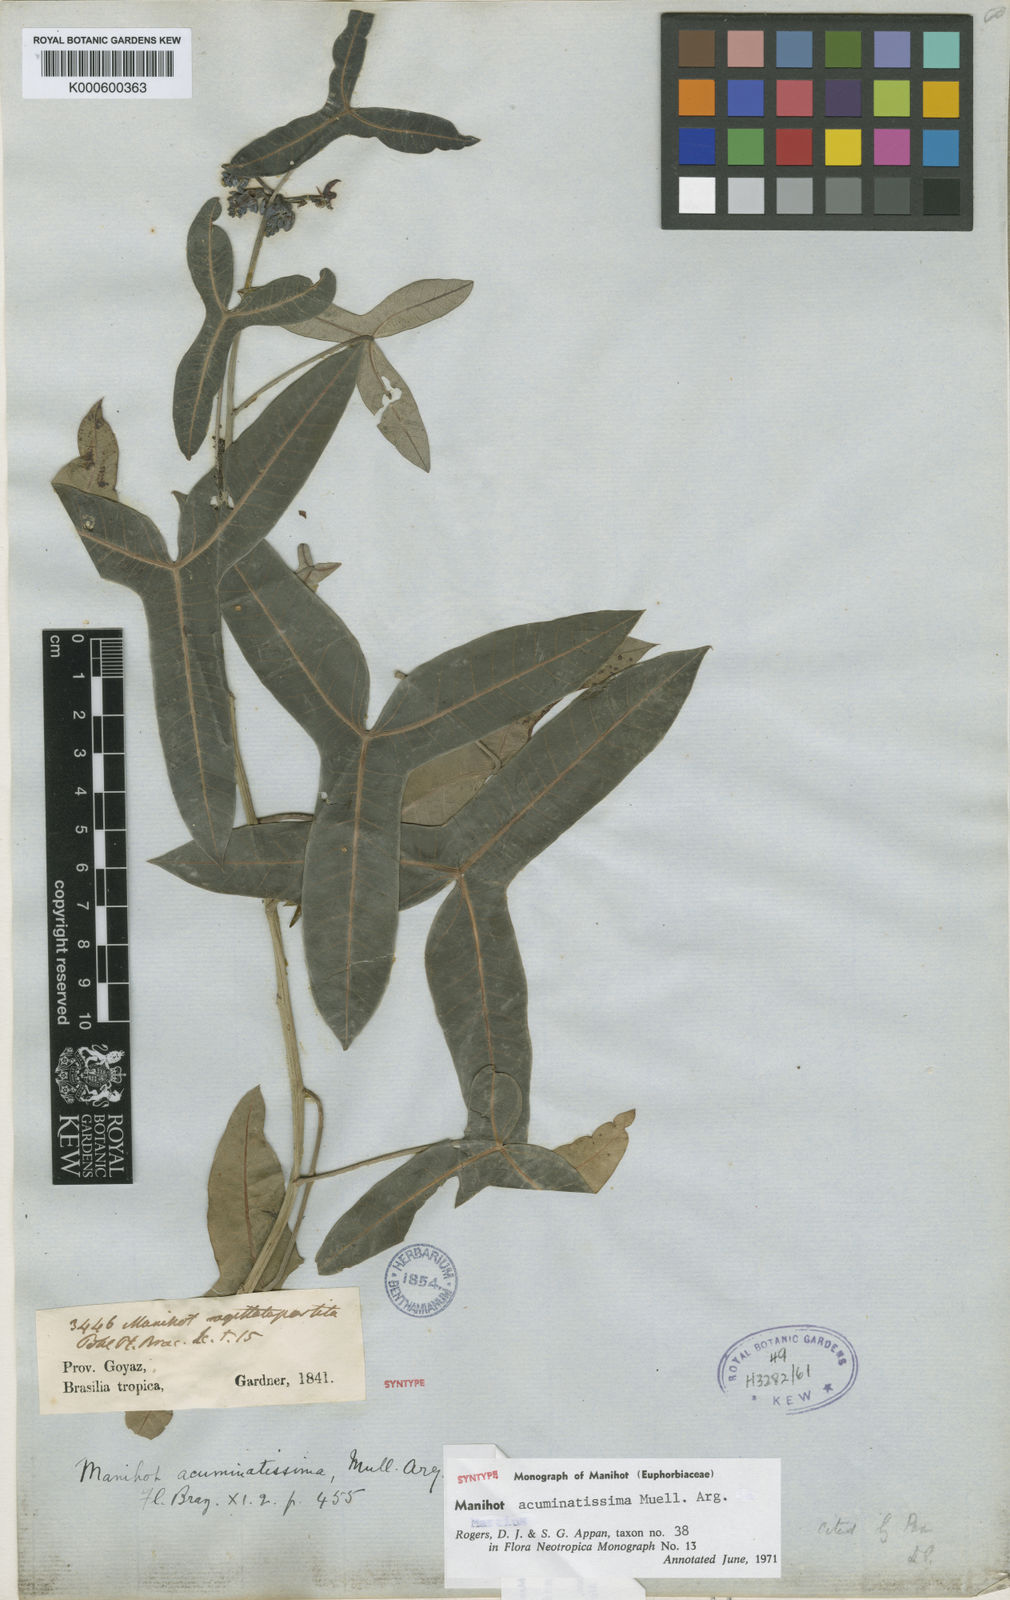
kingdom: Plantae
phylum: Tracheophyta
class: Magnoliopsida
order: Malpighiales
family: Euphorbiaceae
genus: Manihot
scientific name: Manihot
